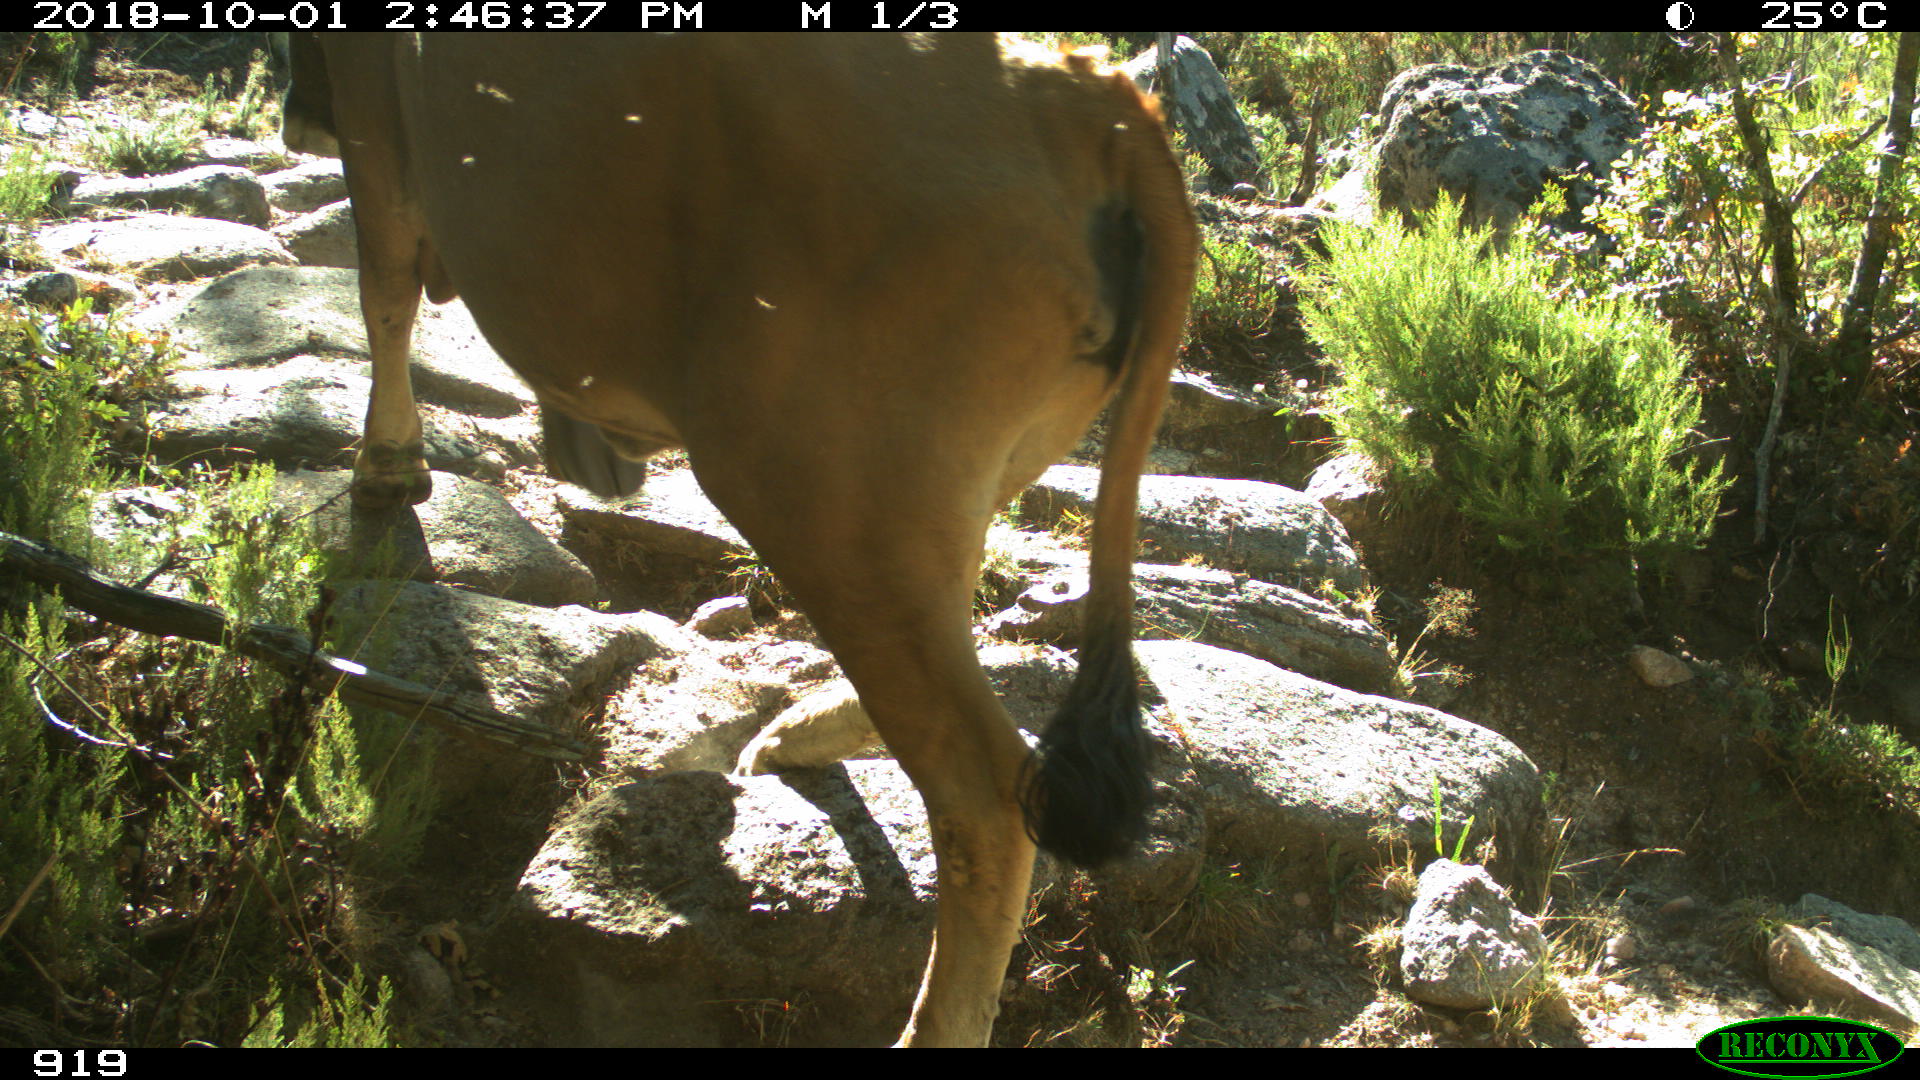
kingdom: Animalia
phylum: Chordata
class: Mammalia
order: Artiodactyla
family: Bovidae
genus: Bos
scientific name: Bos taurus
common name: Domesticated cattle
